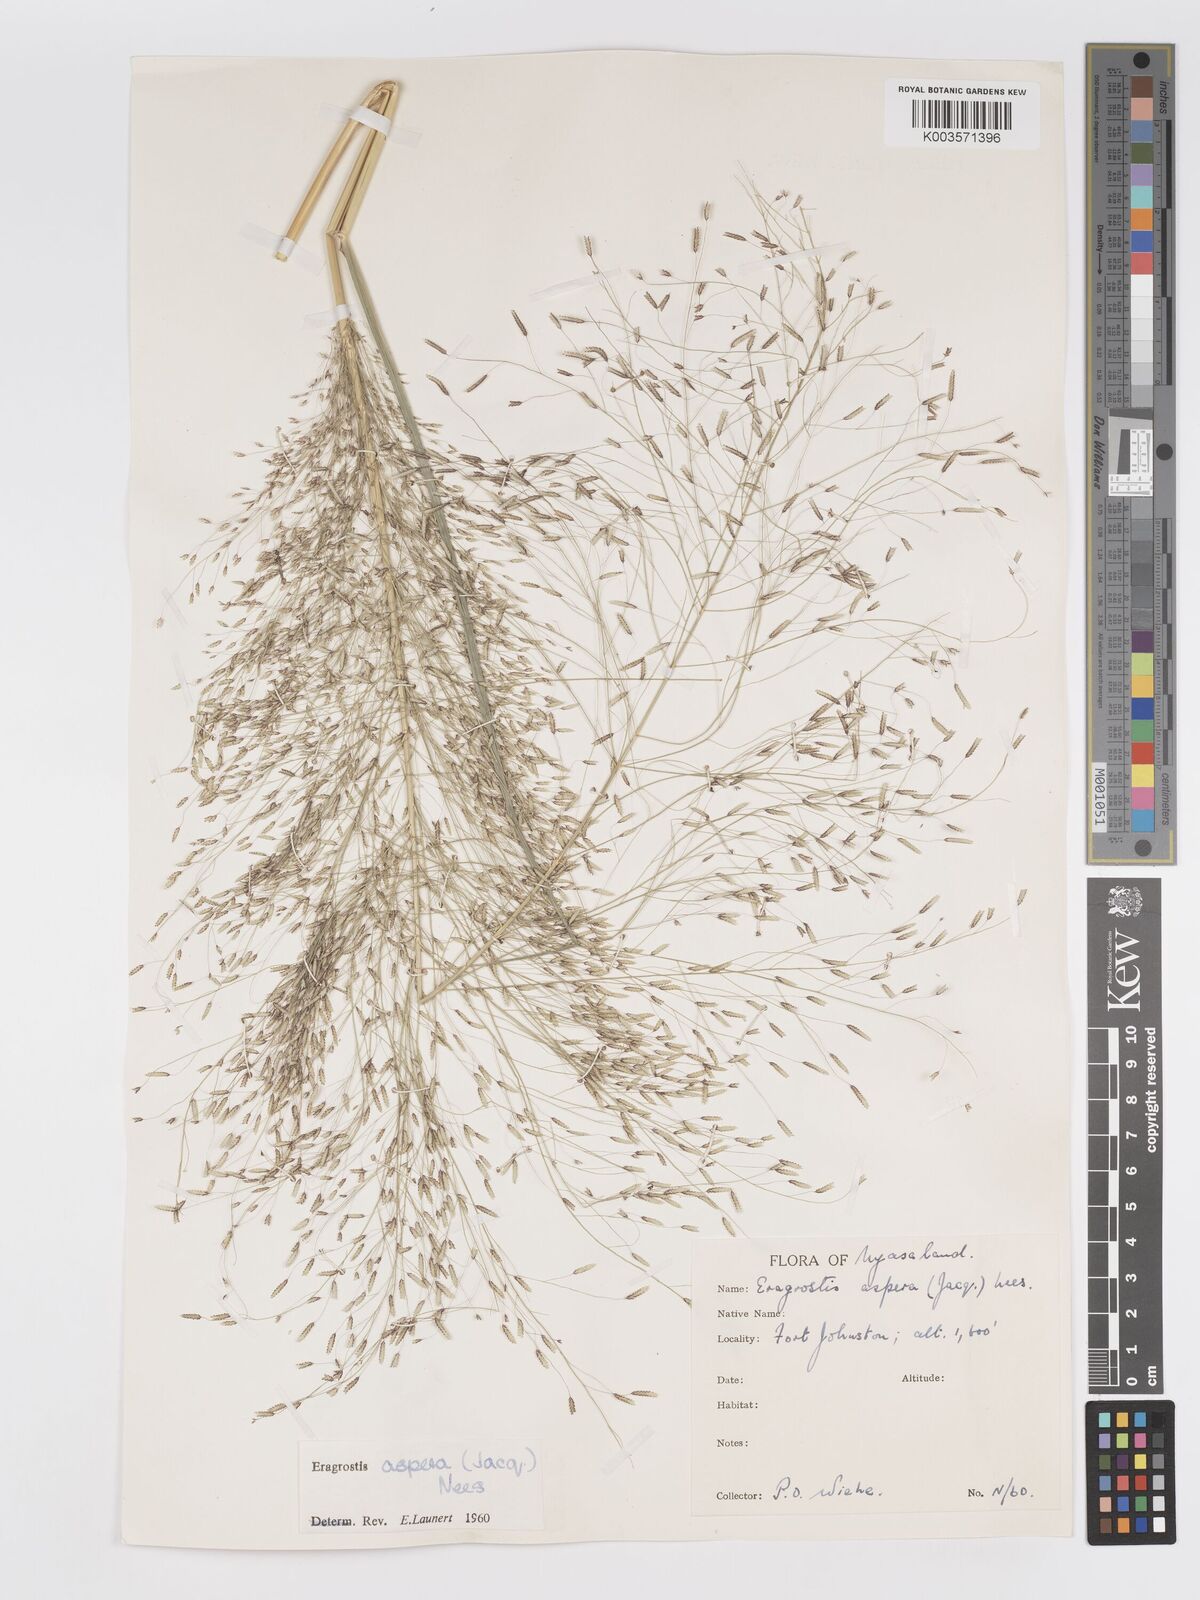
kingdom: Plantae
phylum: Tracheophyta
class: Liliopsida
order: Poales
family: Poaceae
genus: Eragrostis
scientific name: Eragrostis aspera
